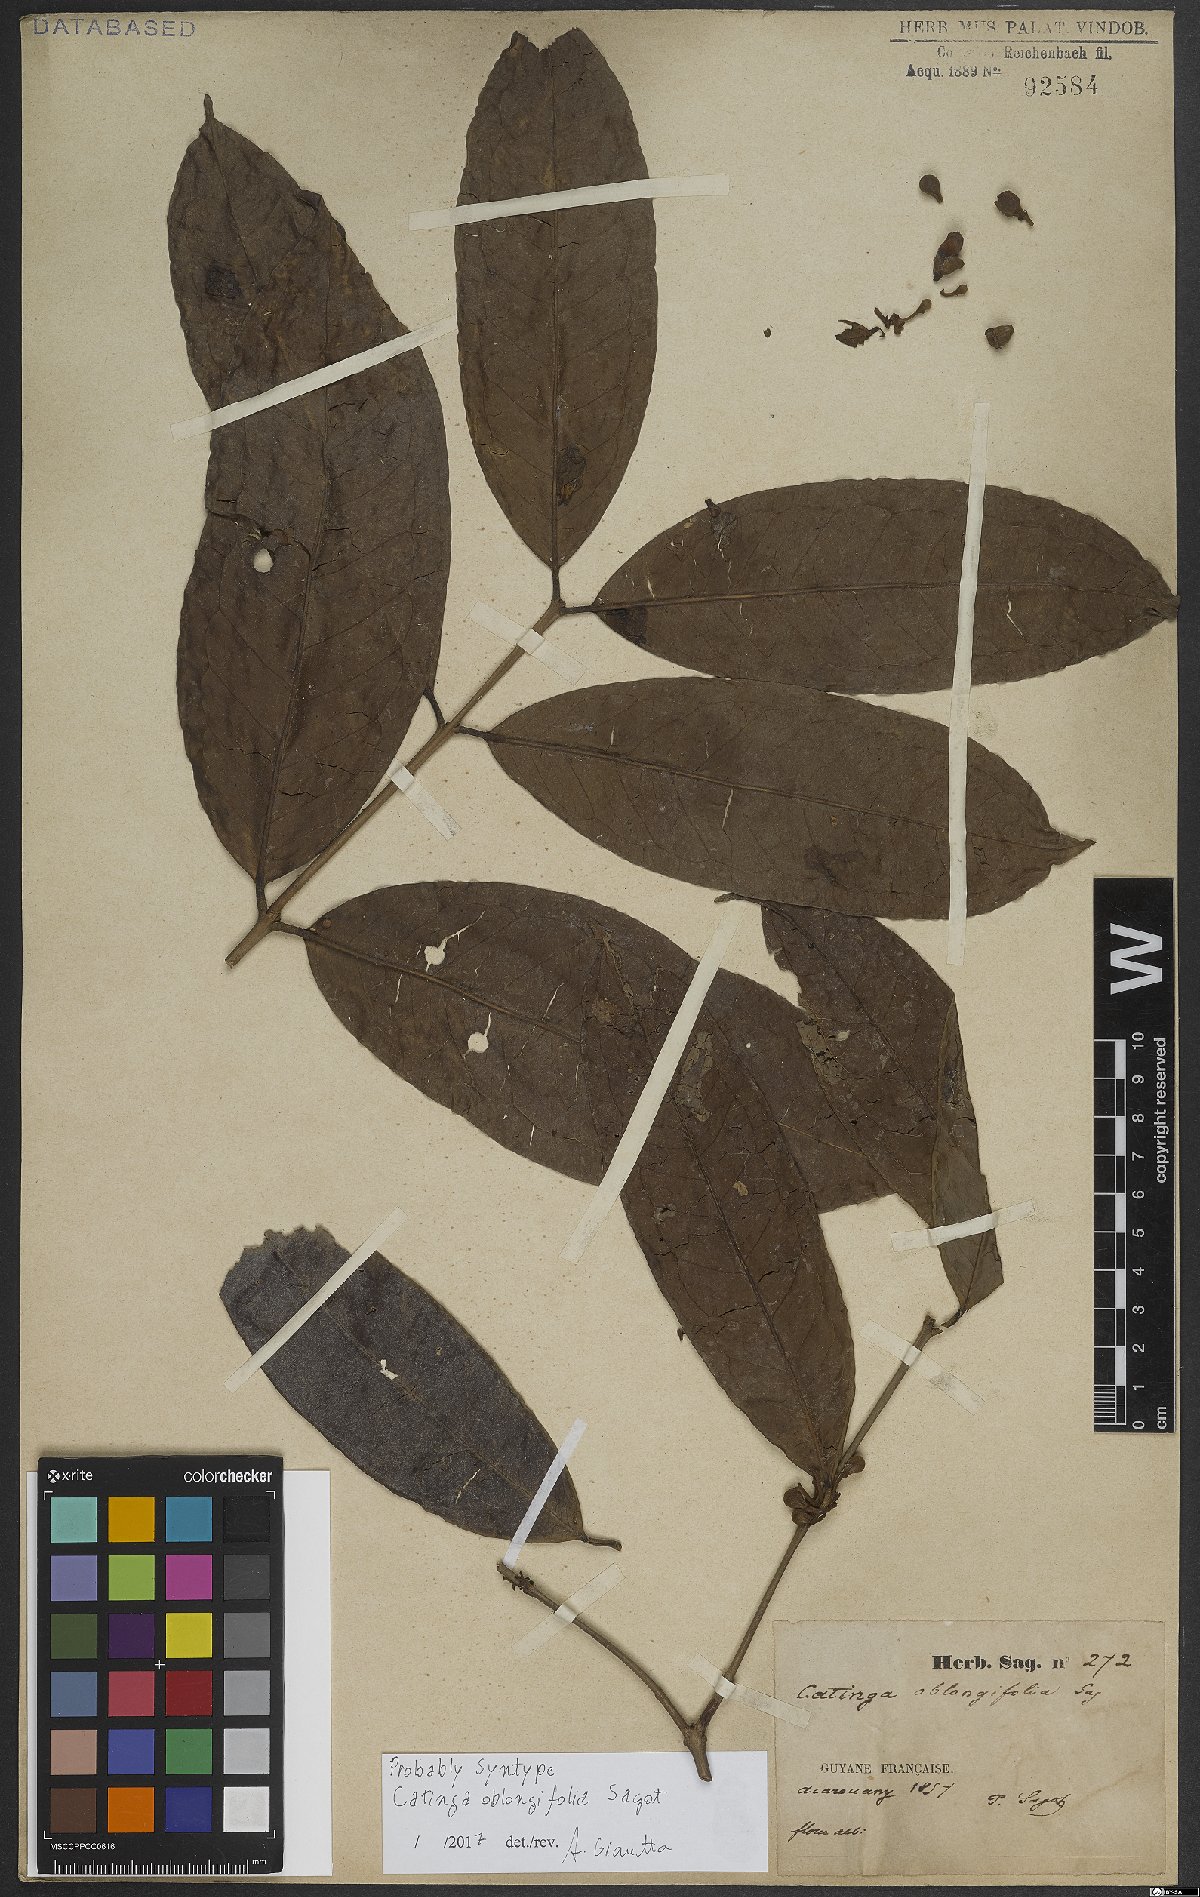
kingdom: Plantae
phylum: Tracheophyta
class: Magnoliopsida
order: Myrtales
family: Myrtaceae
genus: Calycorectes
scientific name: Calycorectes grandifolius
